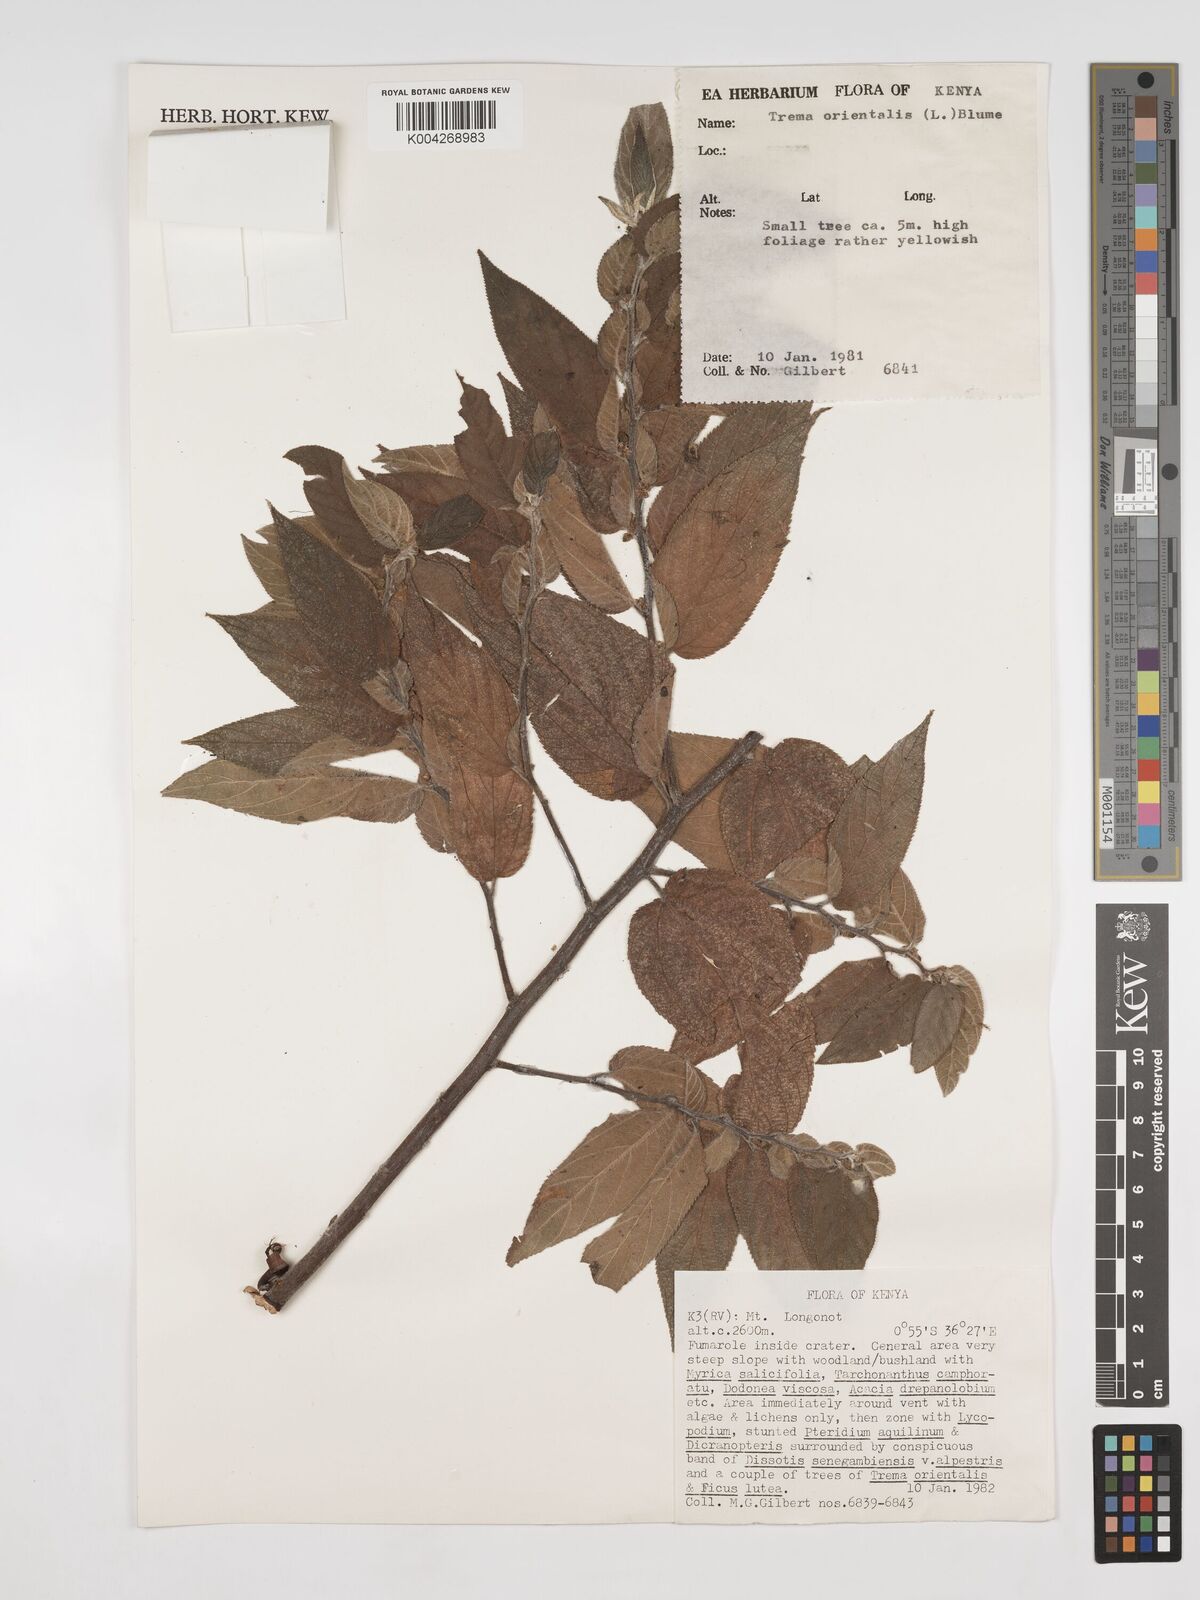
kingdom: Plantae
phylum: Tracheophyta
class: Magnoliopsida
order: Rosales
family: Cannabaceae
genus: Trema
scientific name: Trema orientale
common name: Indian charcoal tree
